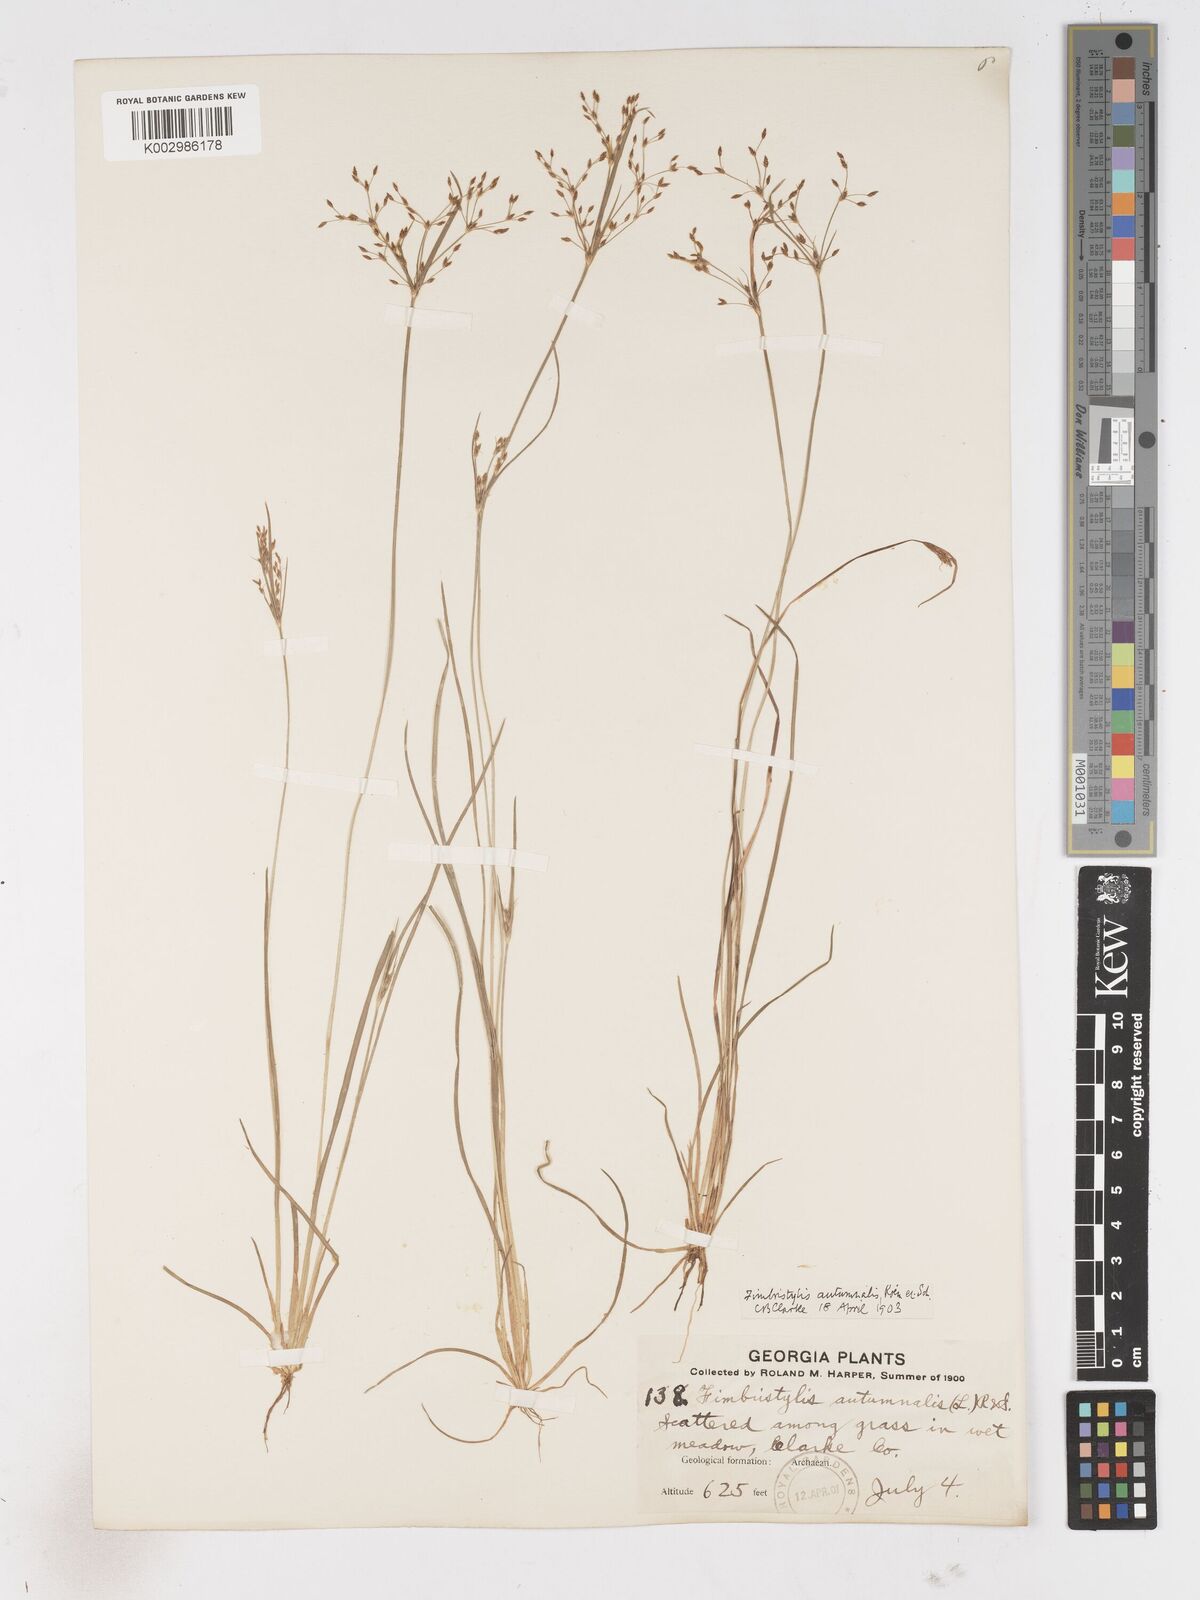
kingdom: Plantae
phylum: Tracheophyta
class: Liliopsida
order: Poales
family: Cyperaceae
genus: Fimbristylis
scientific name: Fimbristylis autumnalis
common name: Slender fimbristylis
